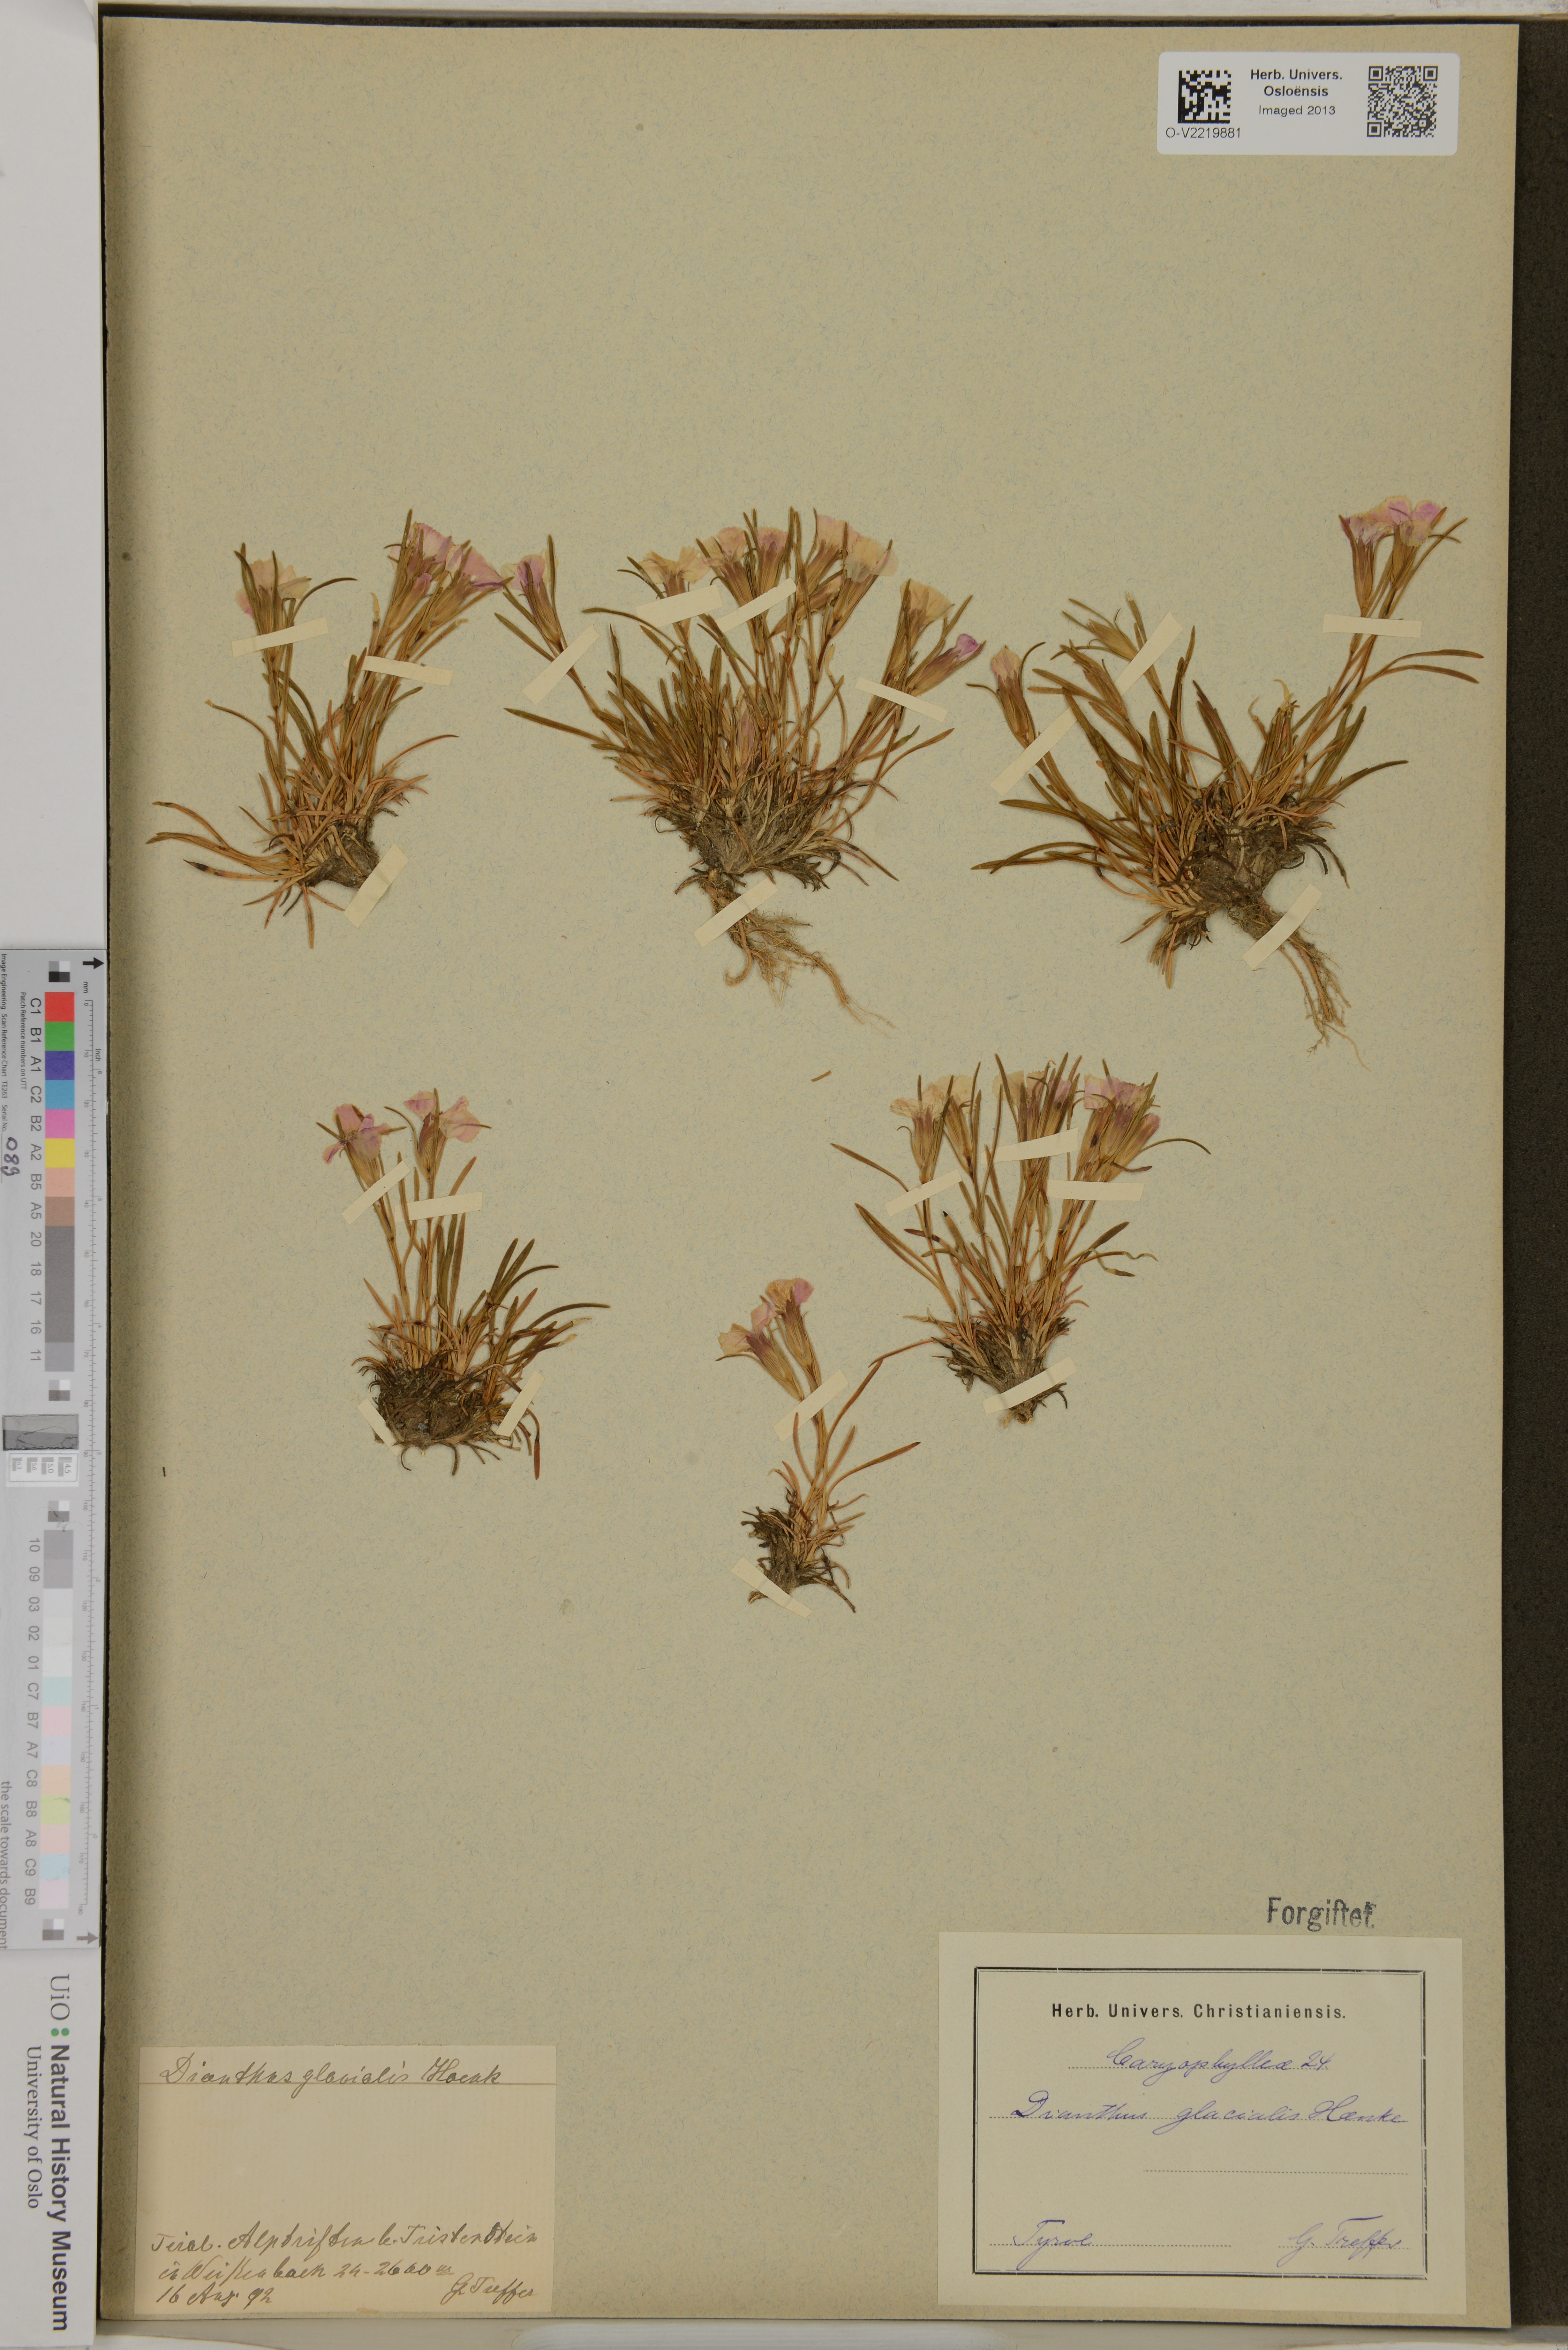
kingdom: Plantae
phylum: Tracheophyta
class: Magnoliopsida
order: Caryophyllales
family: Caryophyllaceae
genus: Dianthus
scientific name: Dianthus glacialis
